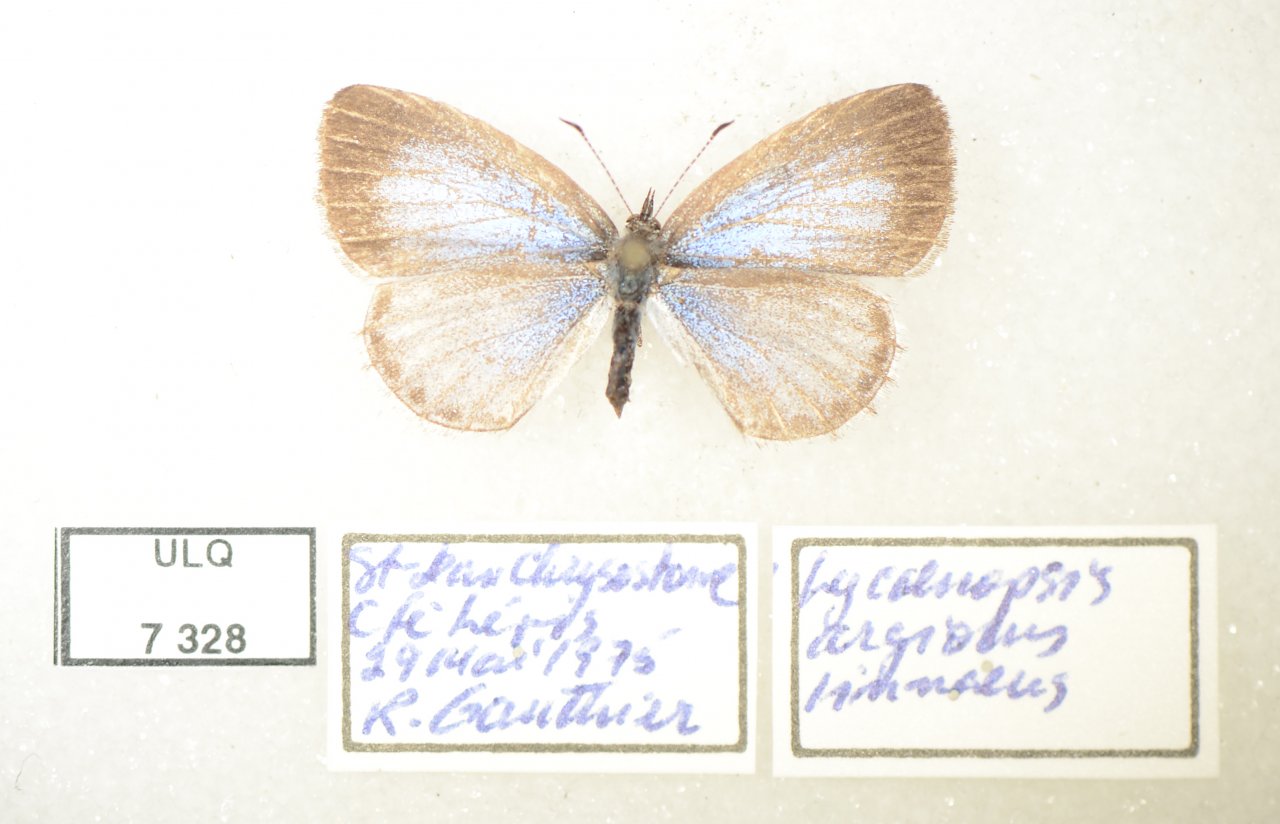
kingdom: Animalia
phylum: Arthropoda
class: Insecta
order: Lepidoptera
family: Lycaenidae
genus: Celastrina
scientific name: Celastrina lucia
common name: Northern Spring Azure
